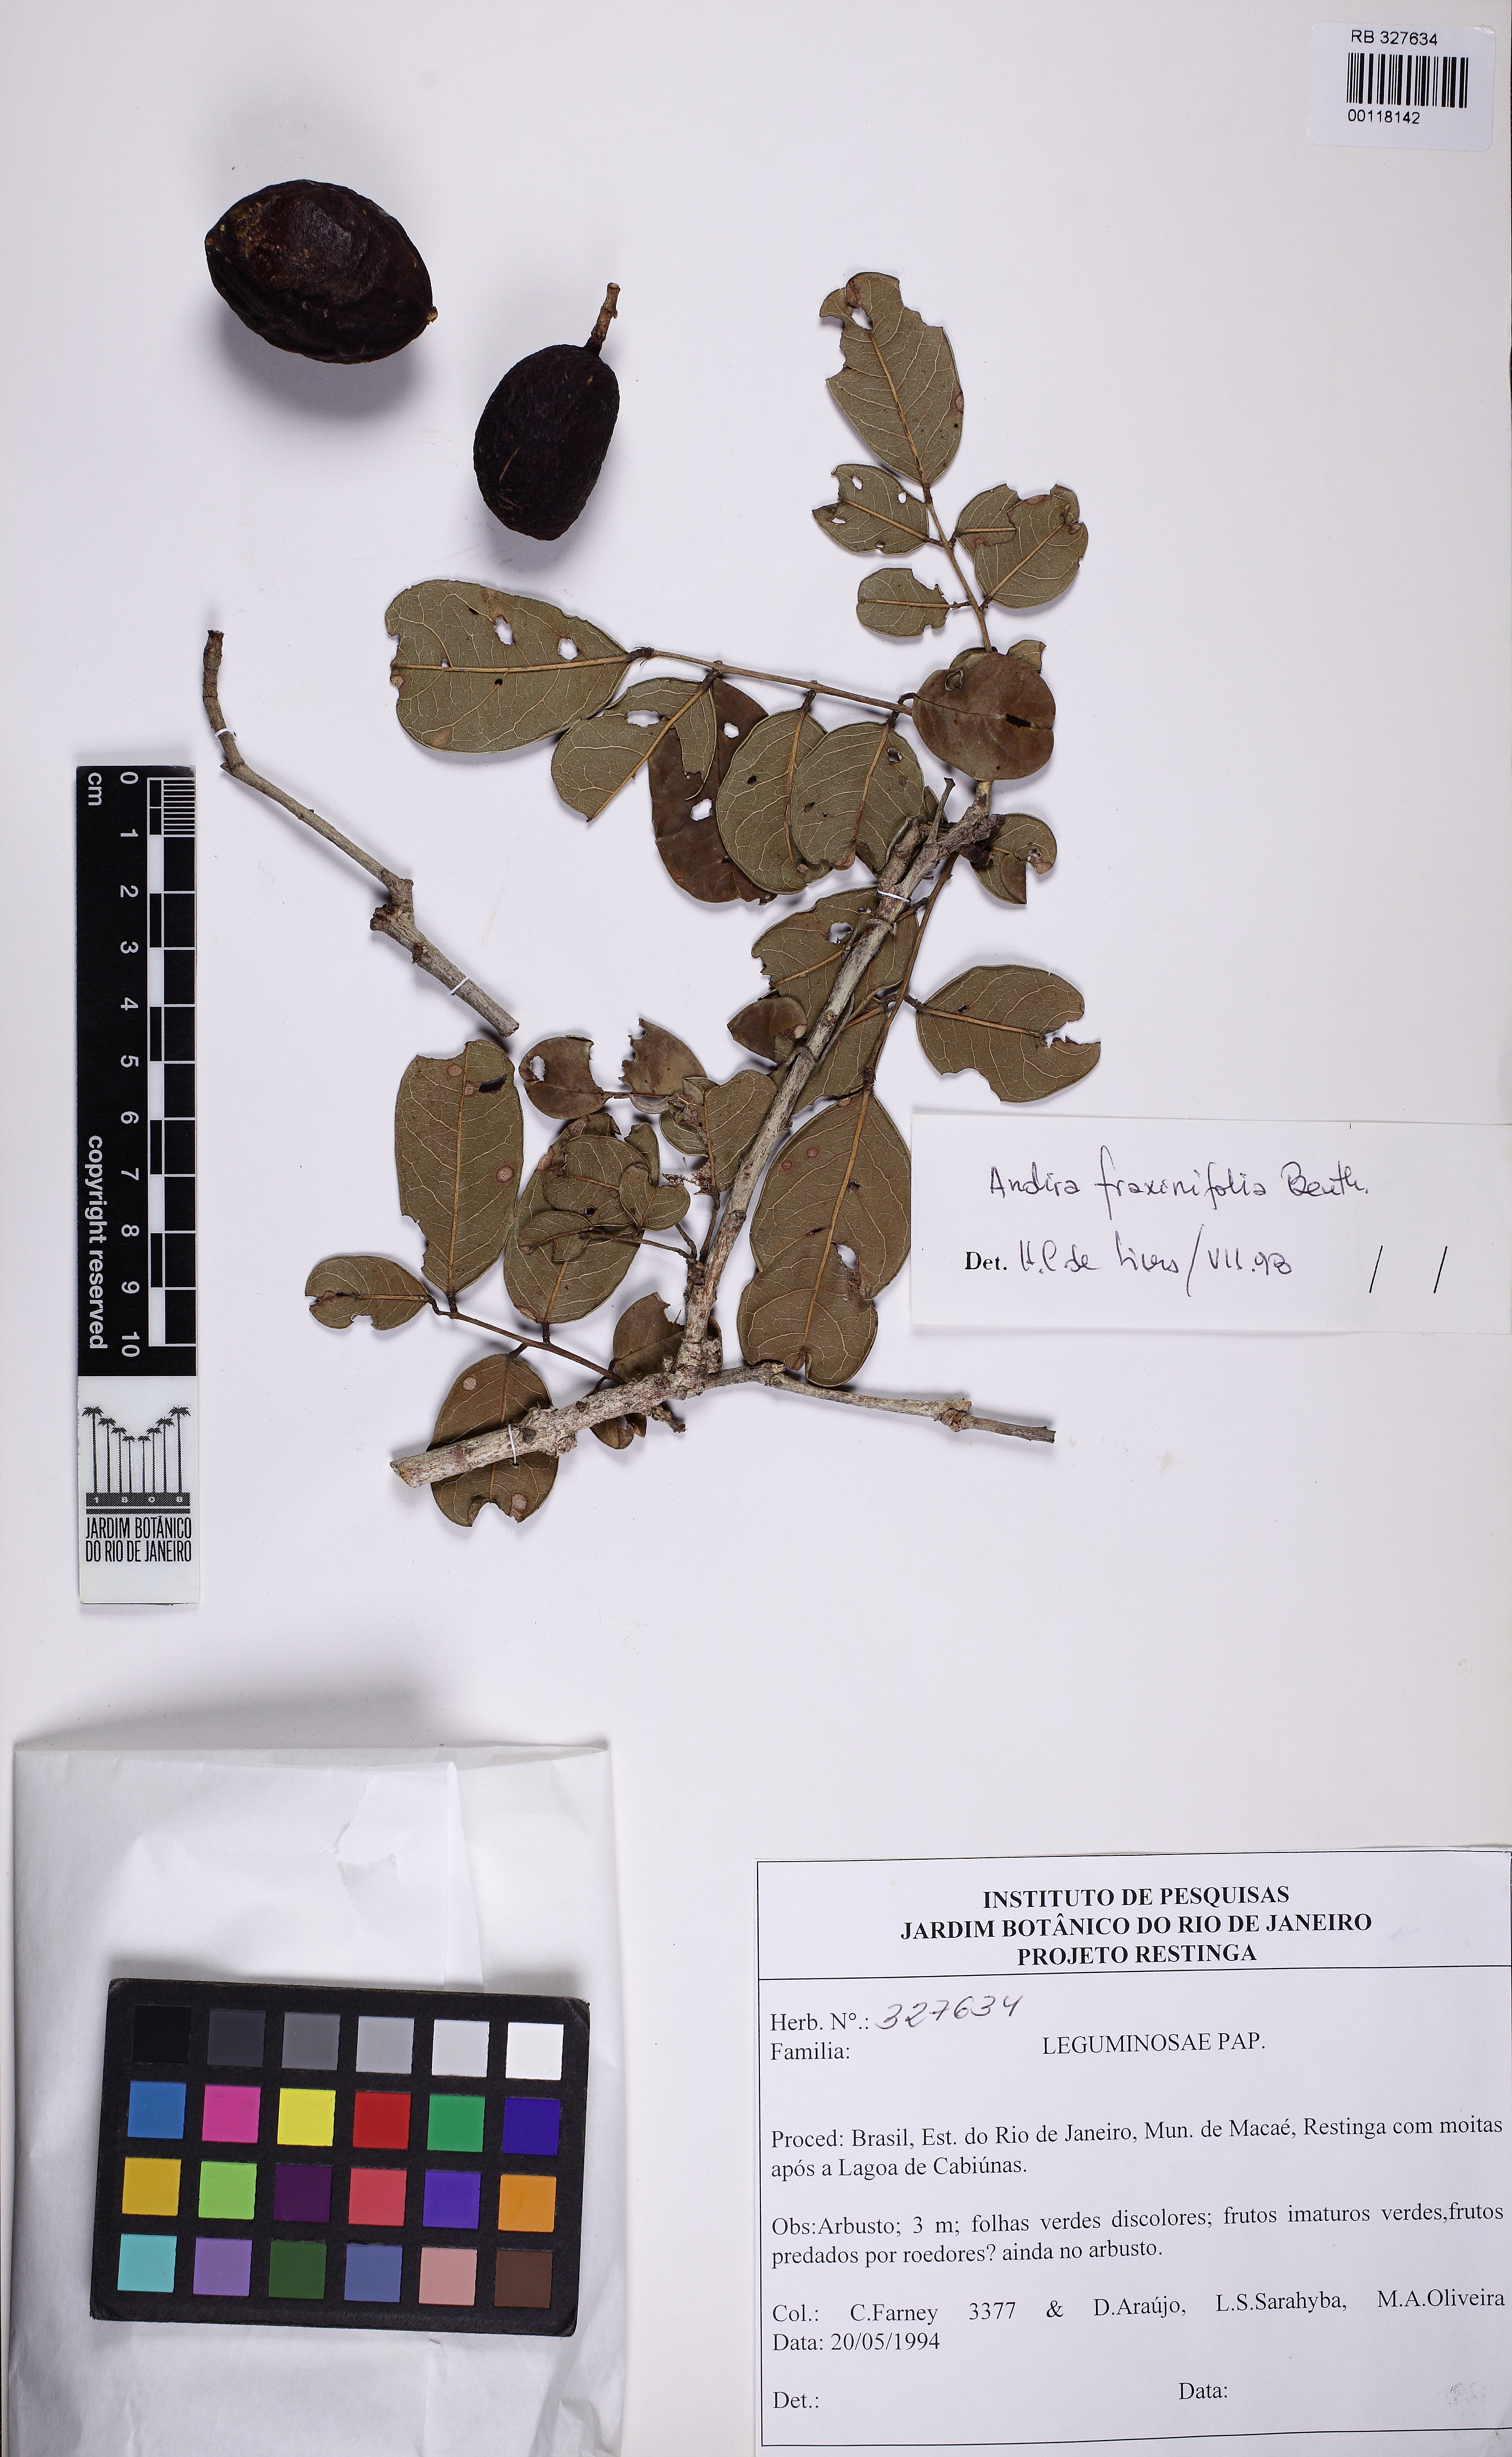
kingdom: Plantae
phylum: Tracheophyta
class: Magnoliopsida
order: Fabales
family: Fabaceae
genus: Andira
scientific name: Andira fraxinifolia
